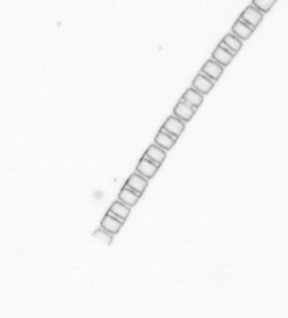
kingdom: Chromista
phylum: Ochrophyta
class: Bacillariophyceae
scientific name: Bacillariophyceae
